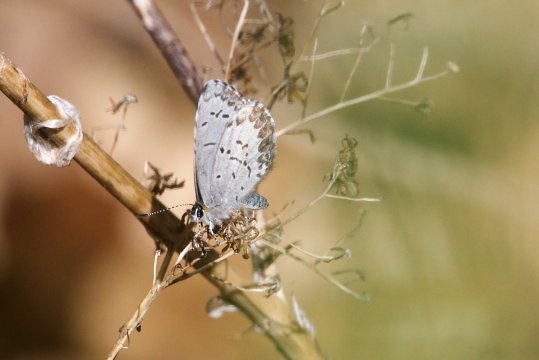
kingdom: Animalia
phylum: Arthropoda
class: Insecta
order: Lepidoptera
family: Lycaenidae
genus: Celastrina
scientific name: Celastrina lucia
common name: Northern Spring Azure
